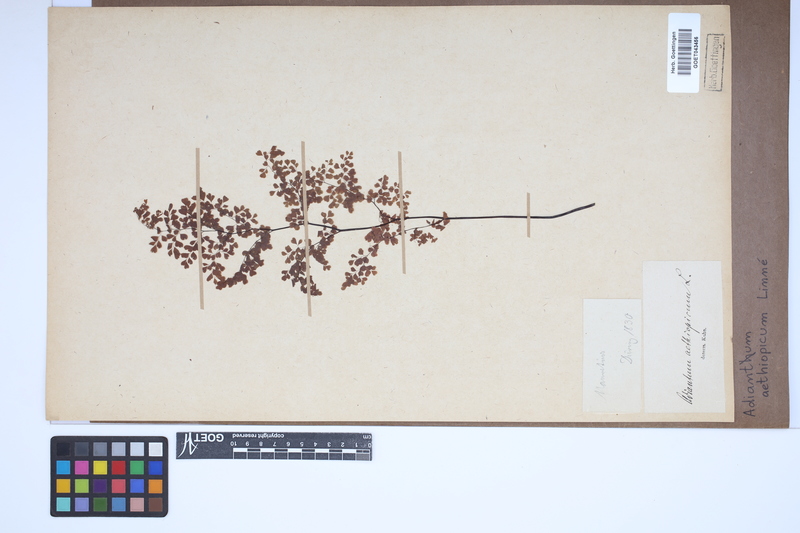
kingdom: Plantae
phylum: Tracheophyta
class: Polypodiopsida
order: Polypodiales
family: Pteridaceae
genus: Adiantum
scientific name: Adiantum aethiopicum
